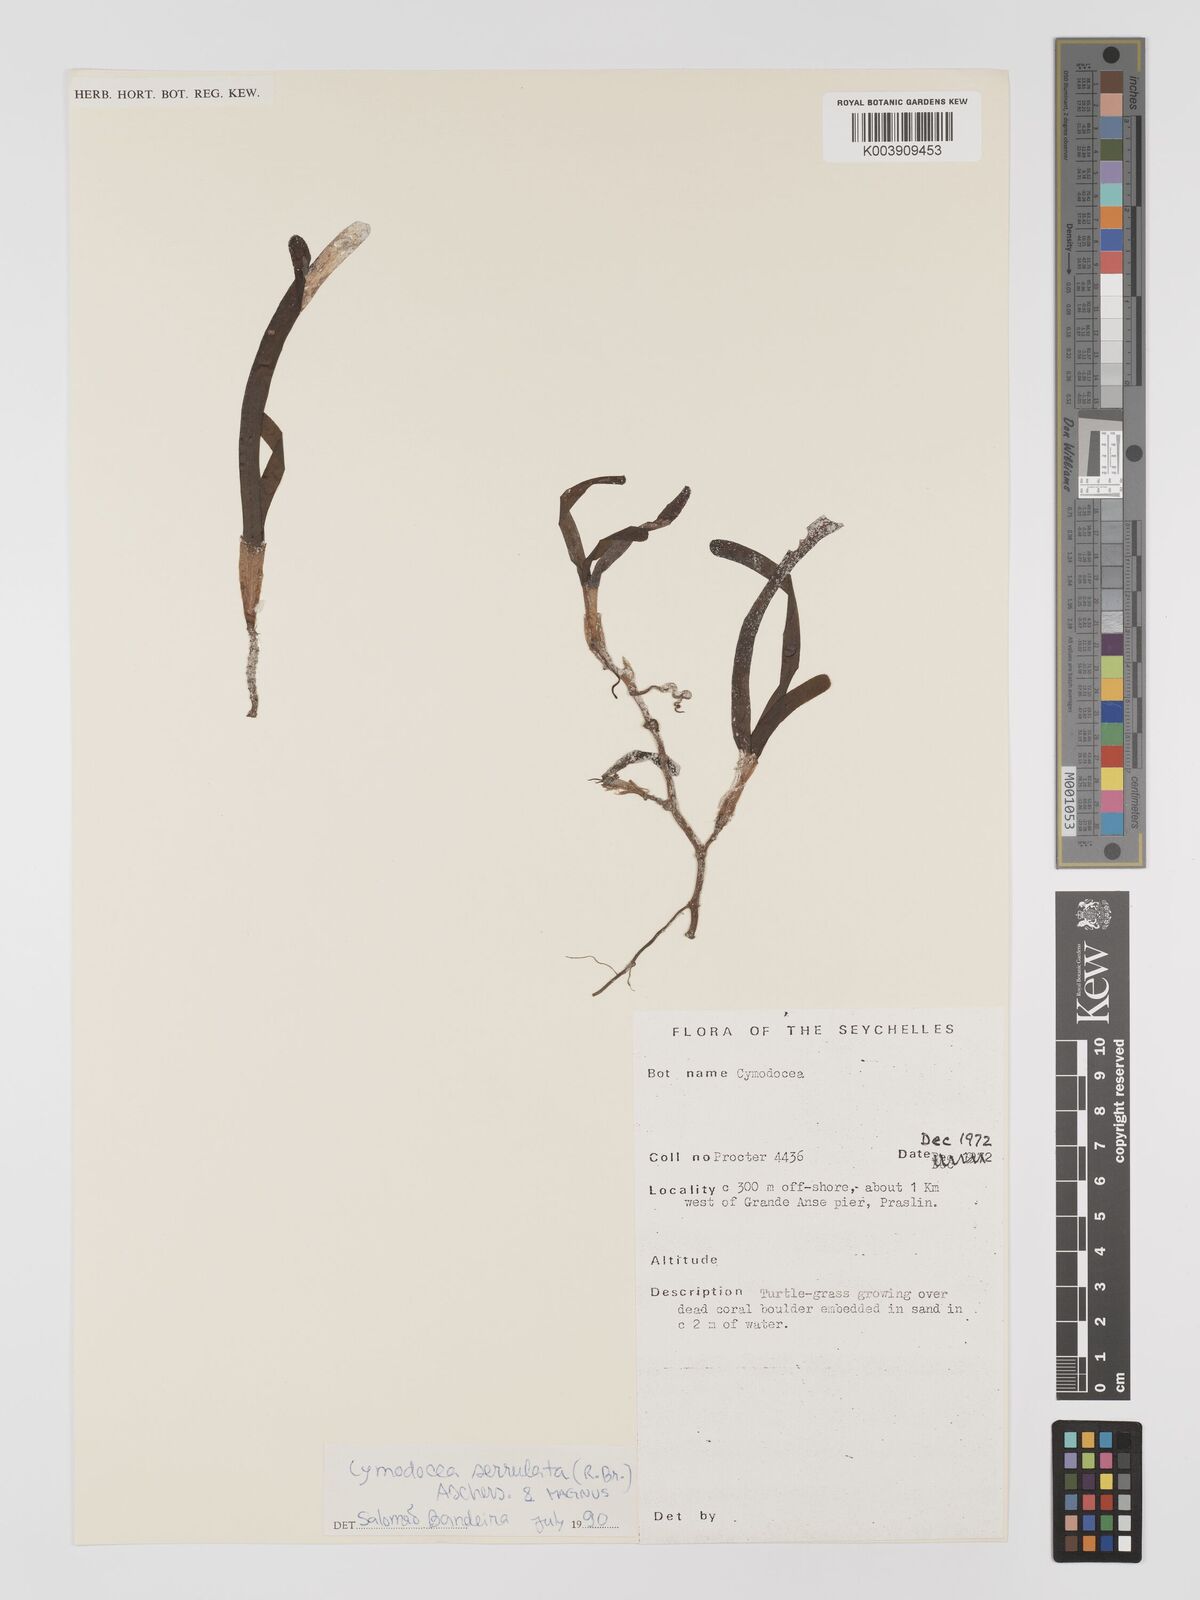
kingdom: Plantae
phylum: Tracheophyta
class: Liliopsida
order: Alismatales
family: Cymodoceaceae
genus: Oceana
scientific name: Oceana serrulata
